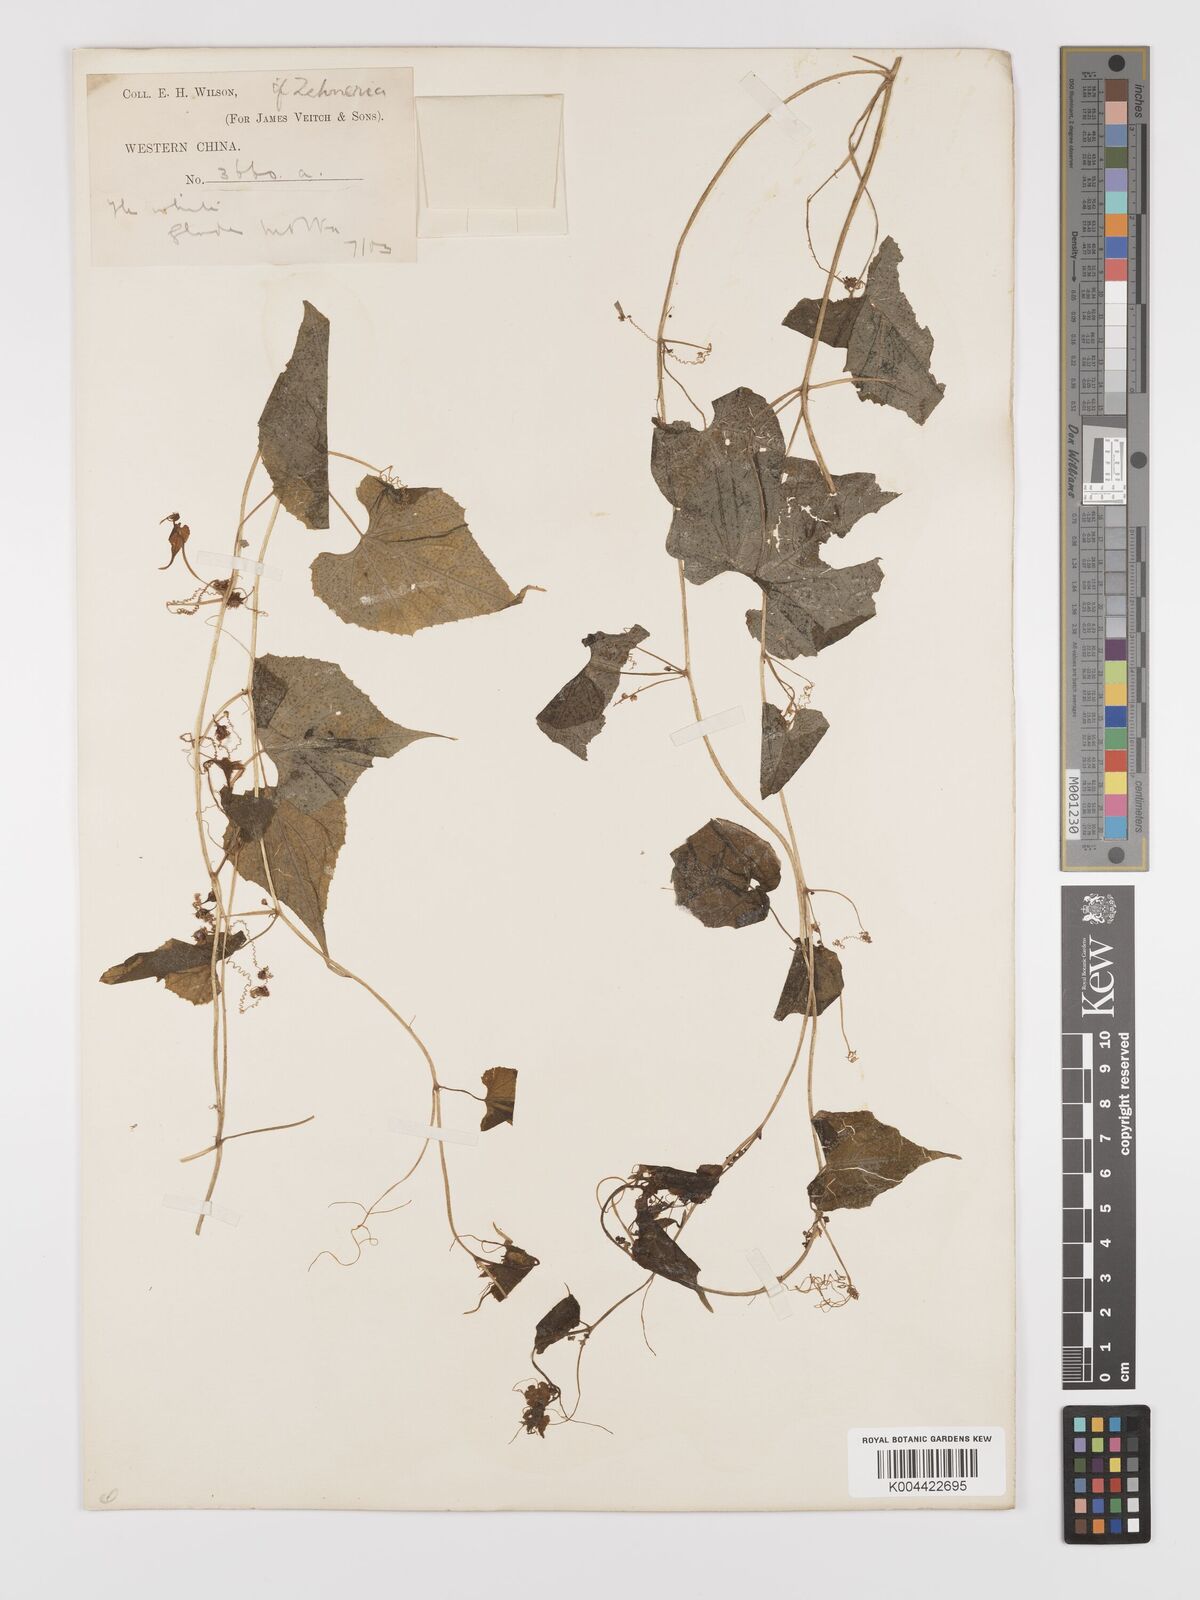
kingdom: Plantae
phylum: Tracheophyta
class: Magnoliopsida
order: Cucurbitales
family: Cucurbitaceae
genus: Schizopepon
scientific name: Schizopepon dioicus
